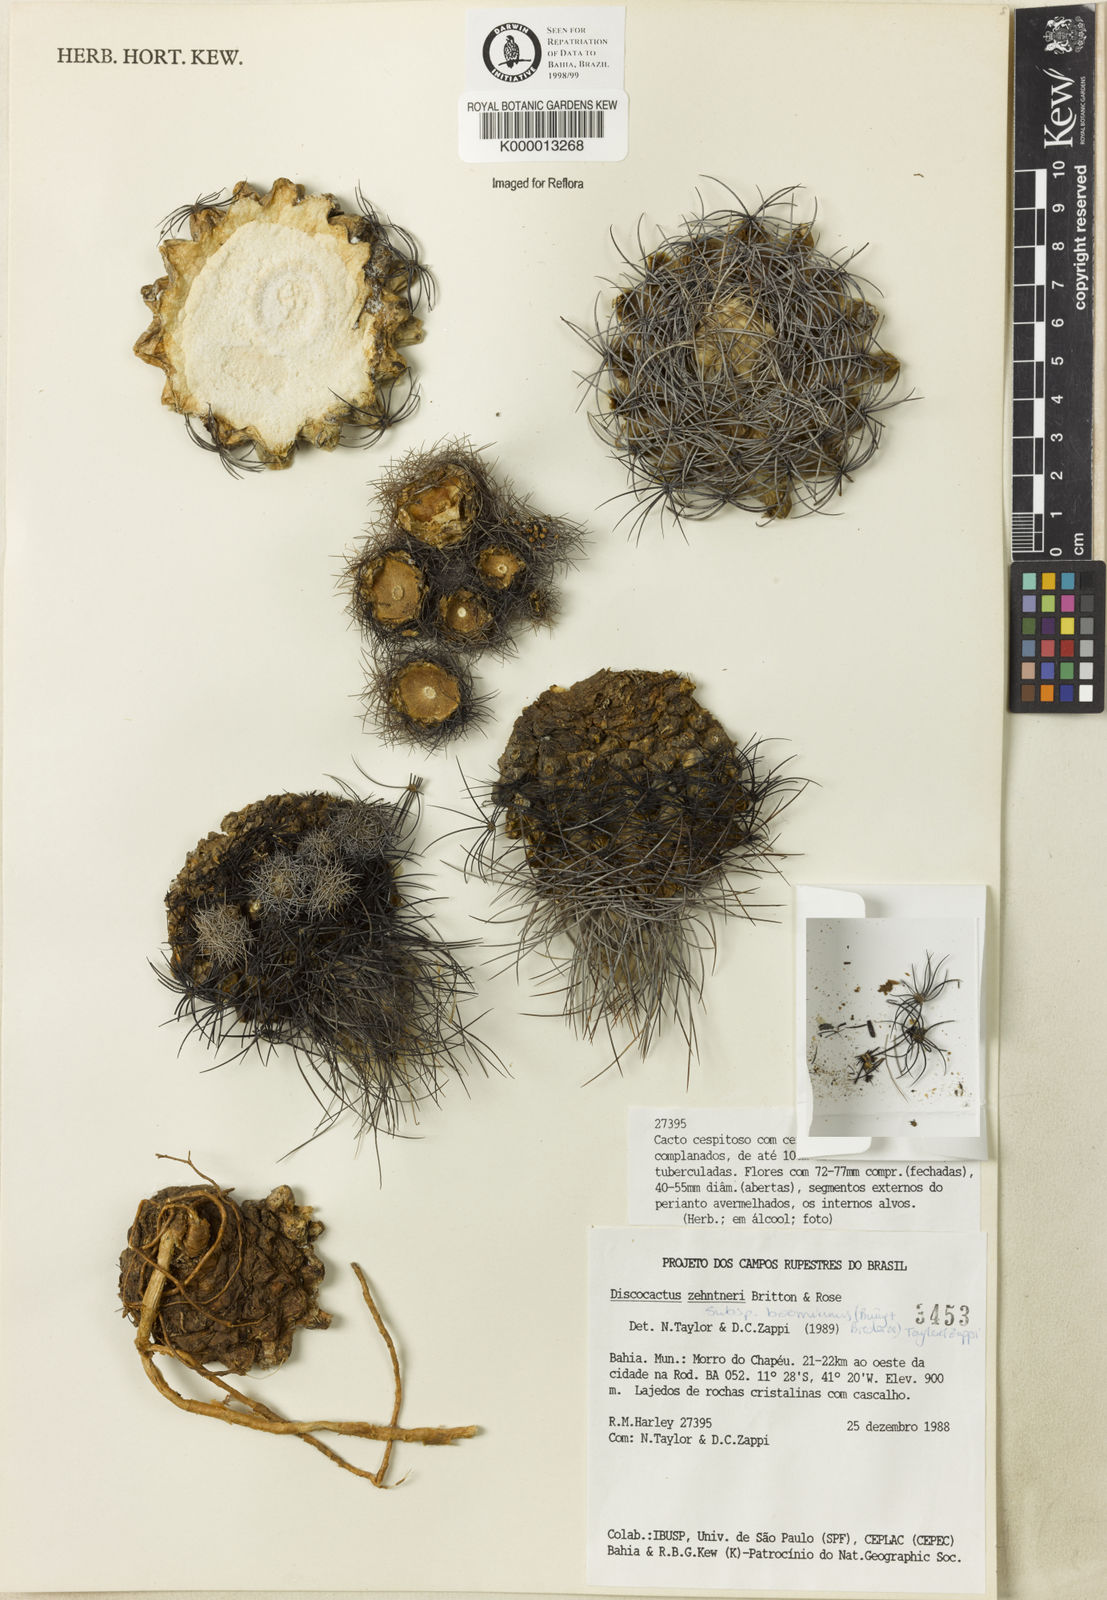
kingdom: Plantae
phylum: Tracheophyta
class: Magnoliopsida
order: Caryophyllales
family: Cactaceae
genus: Discocactus
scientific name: Discocactus zehntneri
